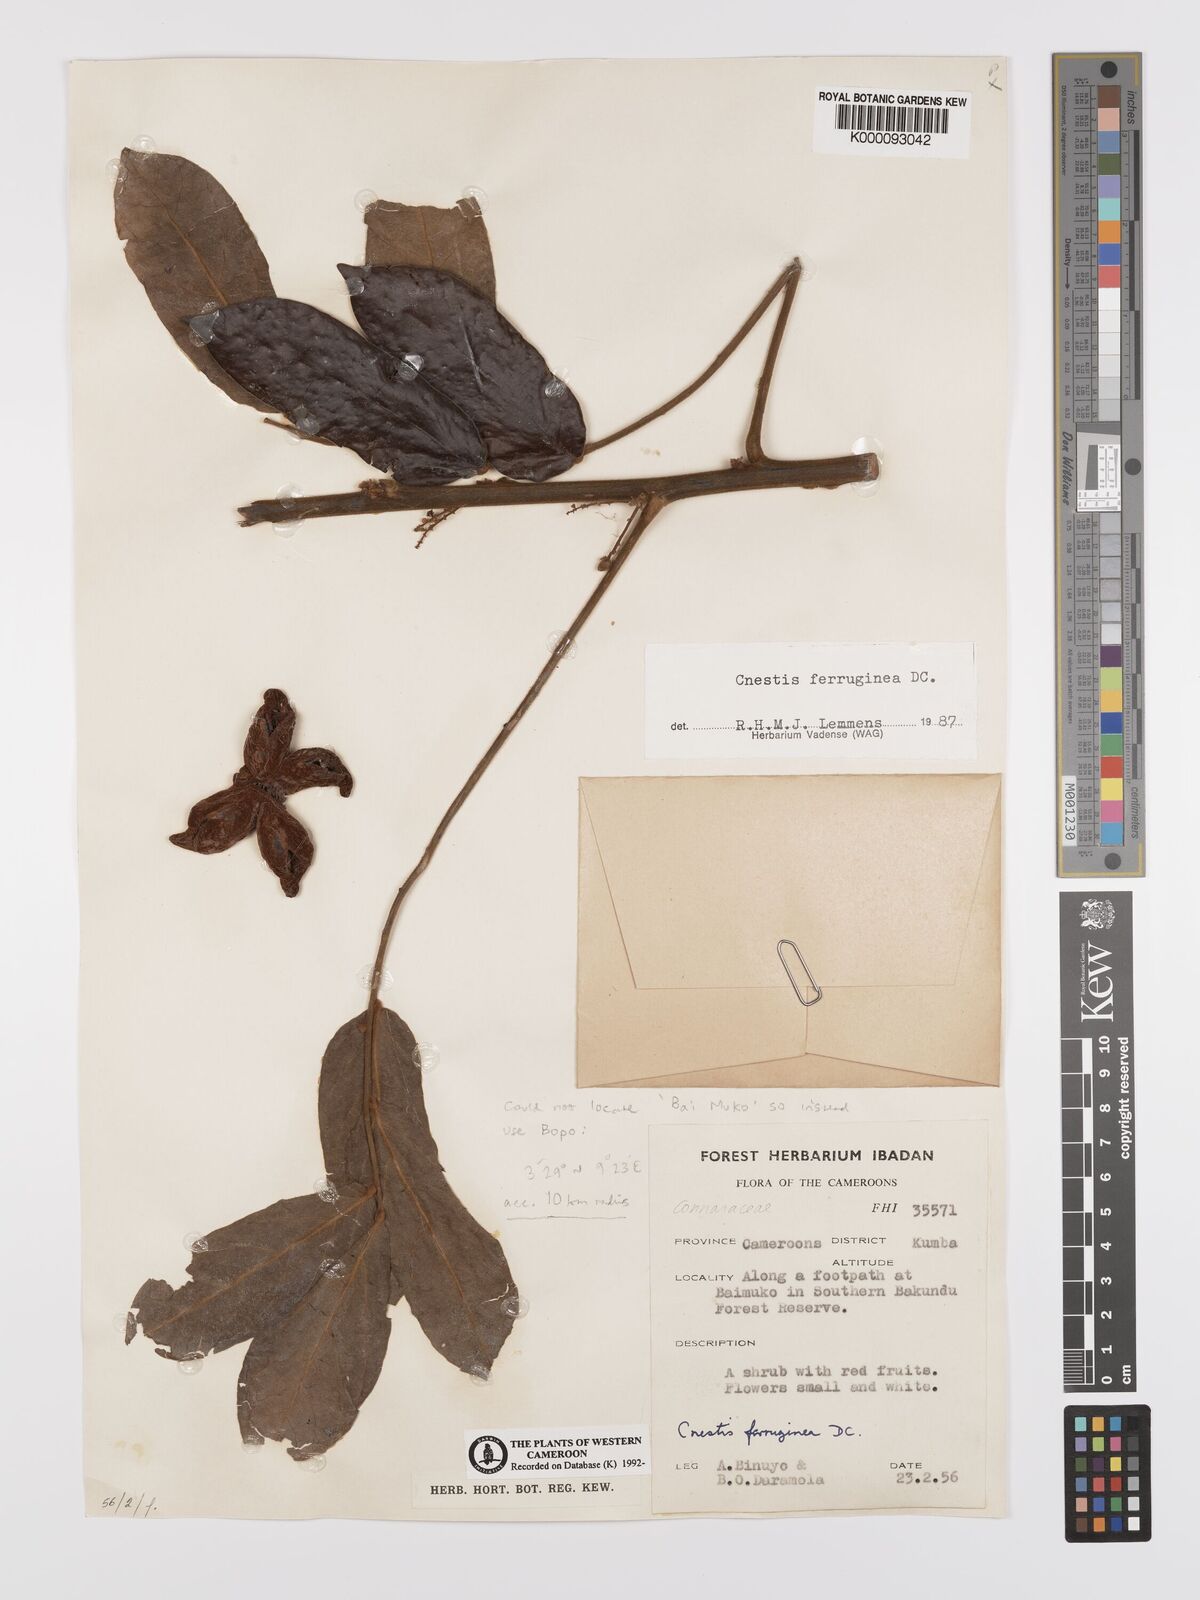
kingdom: Plantae
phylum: Tracheophyta
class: Magnoliopsida
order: Oxalidales
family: Connaraceae
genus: Cnestis
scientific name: Cnestis ferruginea
